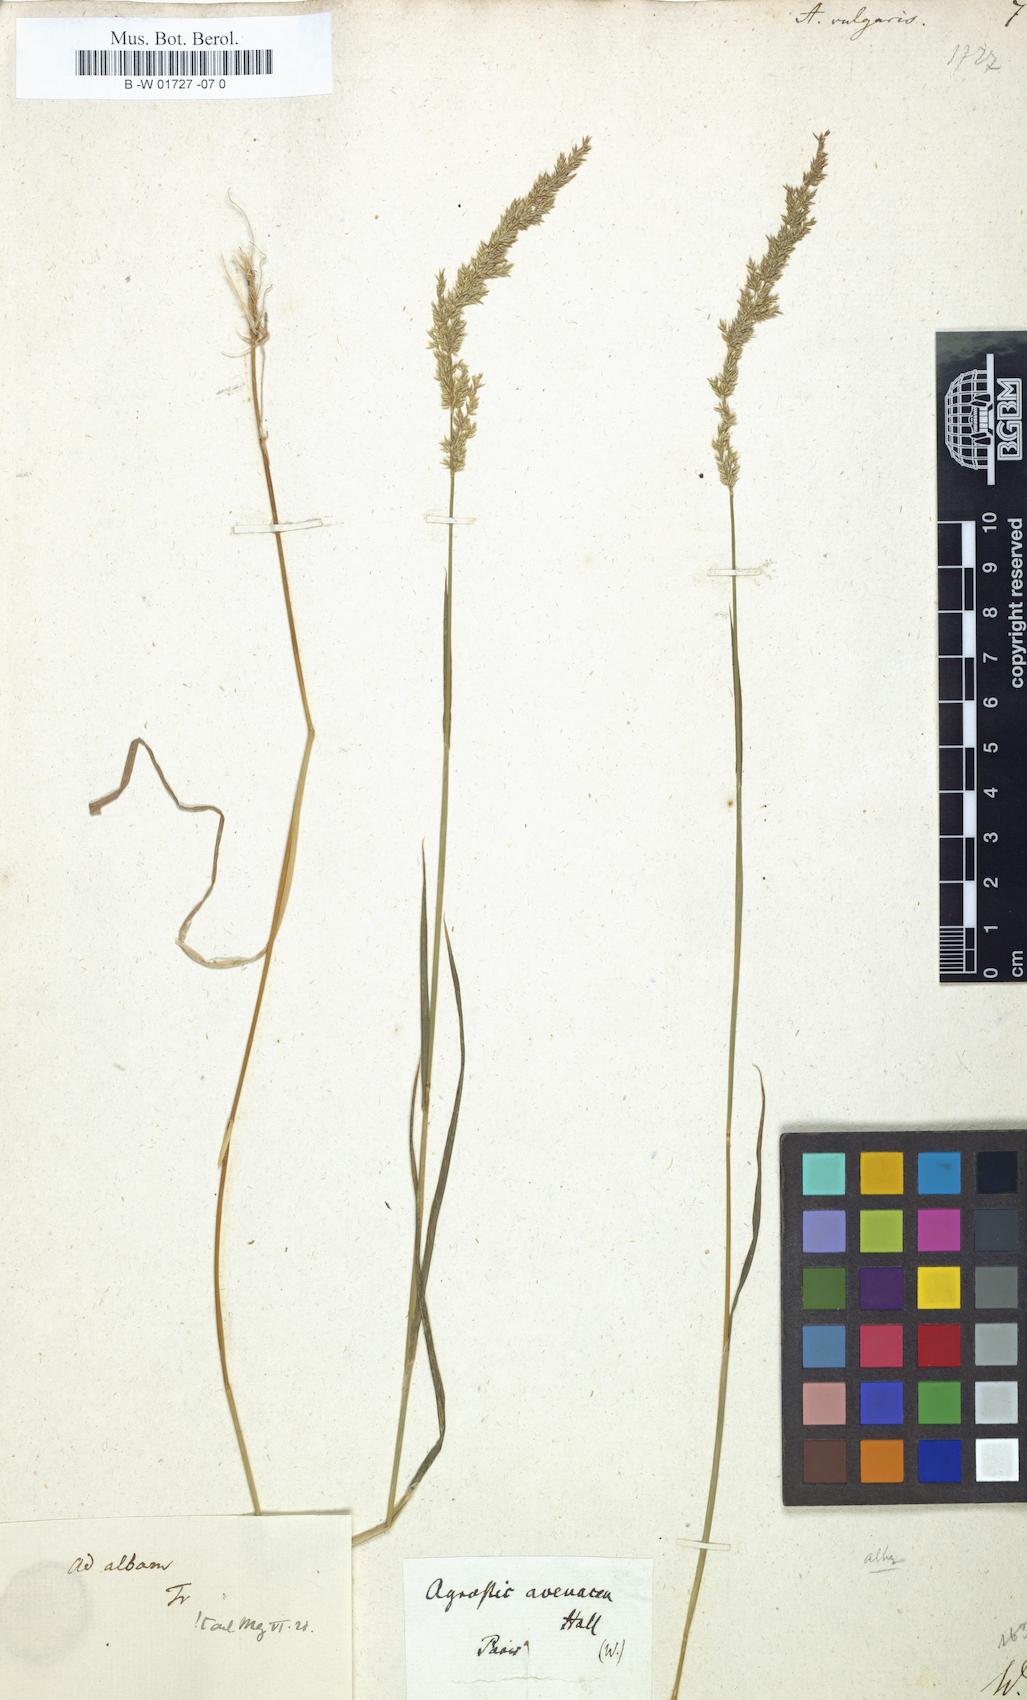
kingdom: Plantae
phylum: Tracheophyta
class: Liliopsida
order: Poales
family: Poaceae
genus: Agrostis
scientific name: Agrostis capillaris
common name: Colonial bentgrass
